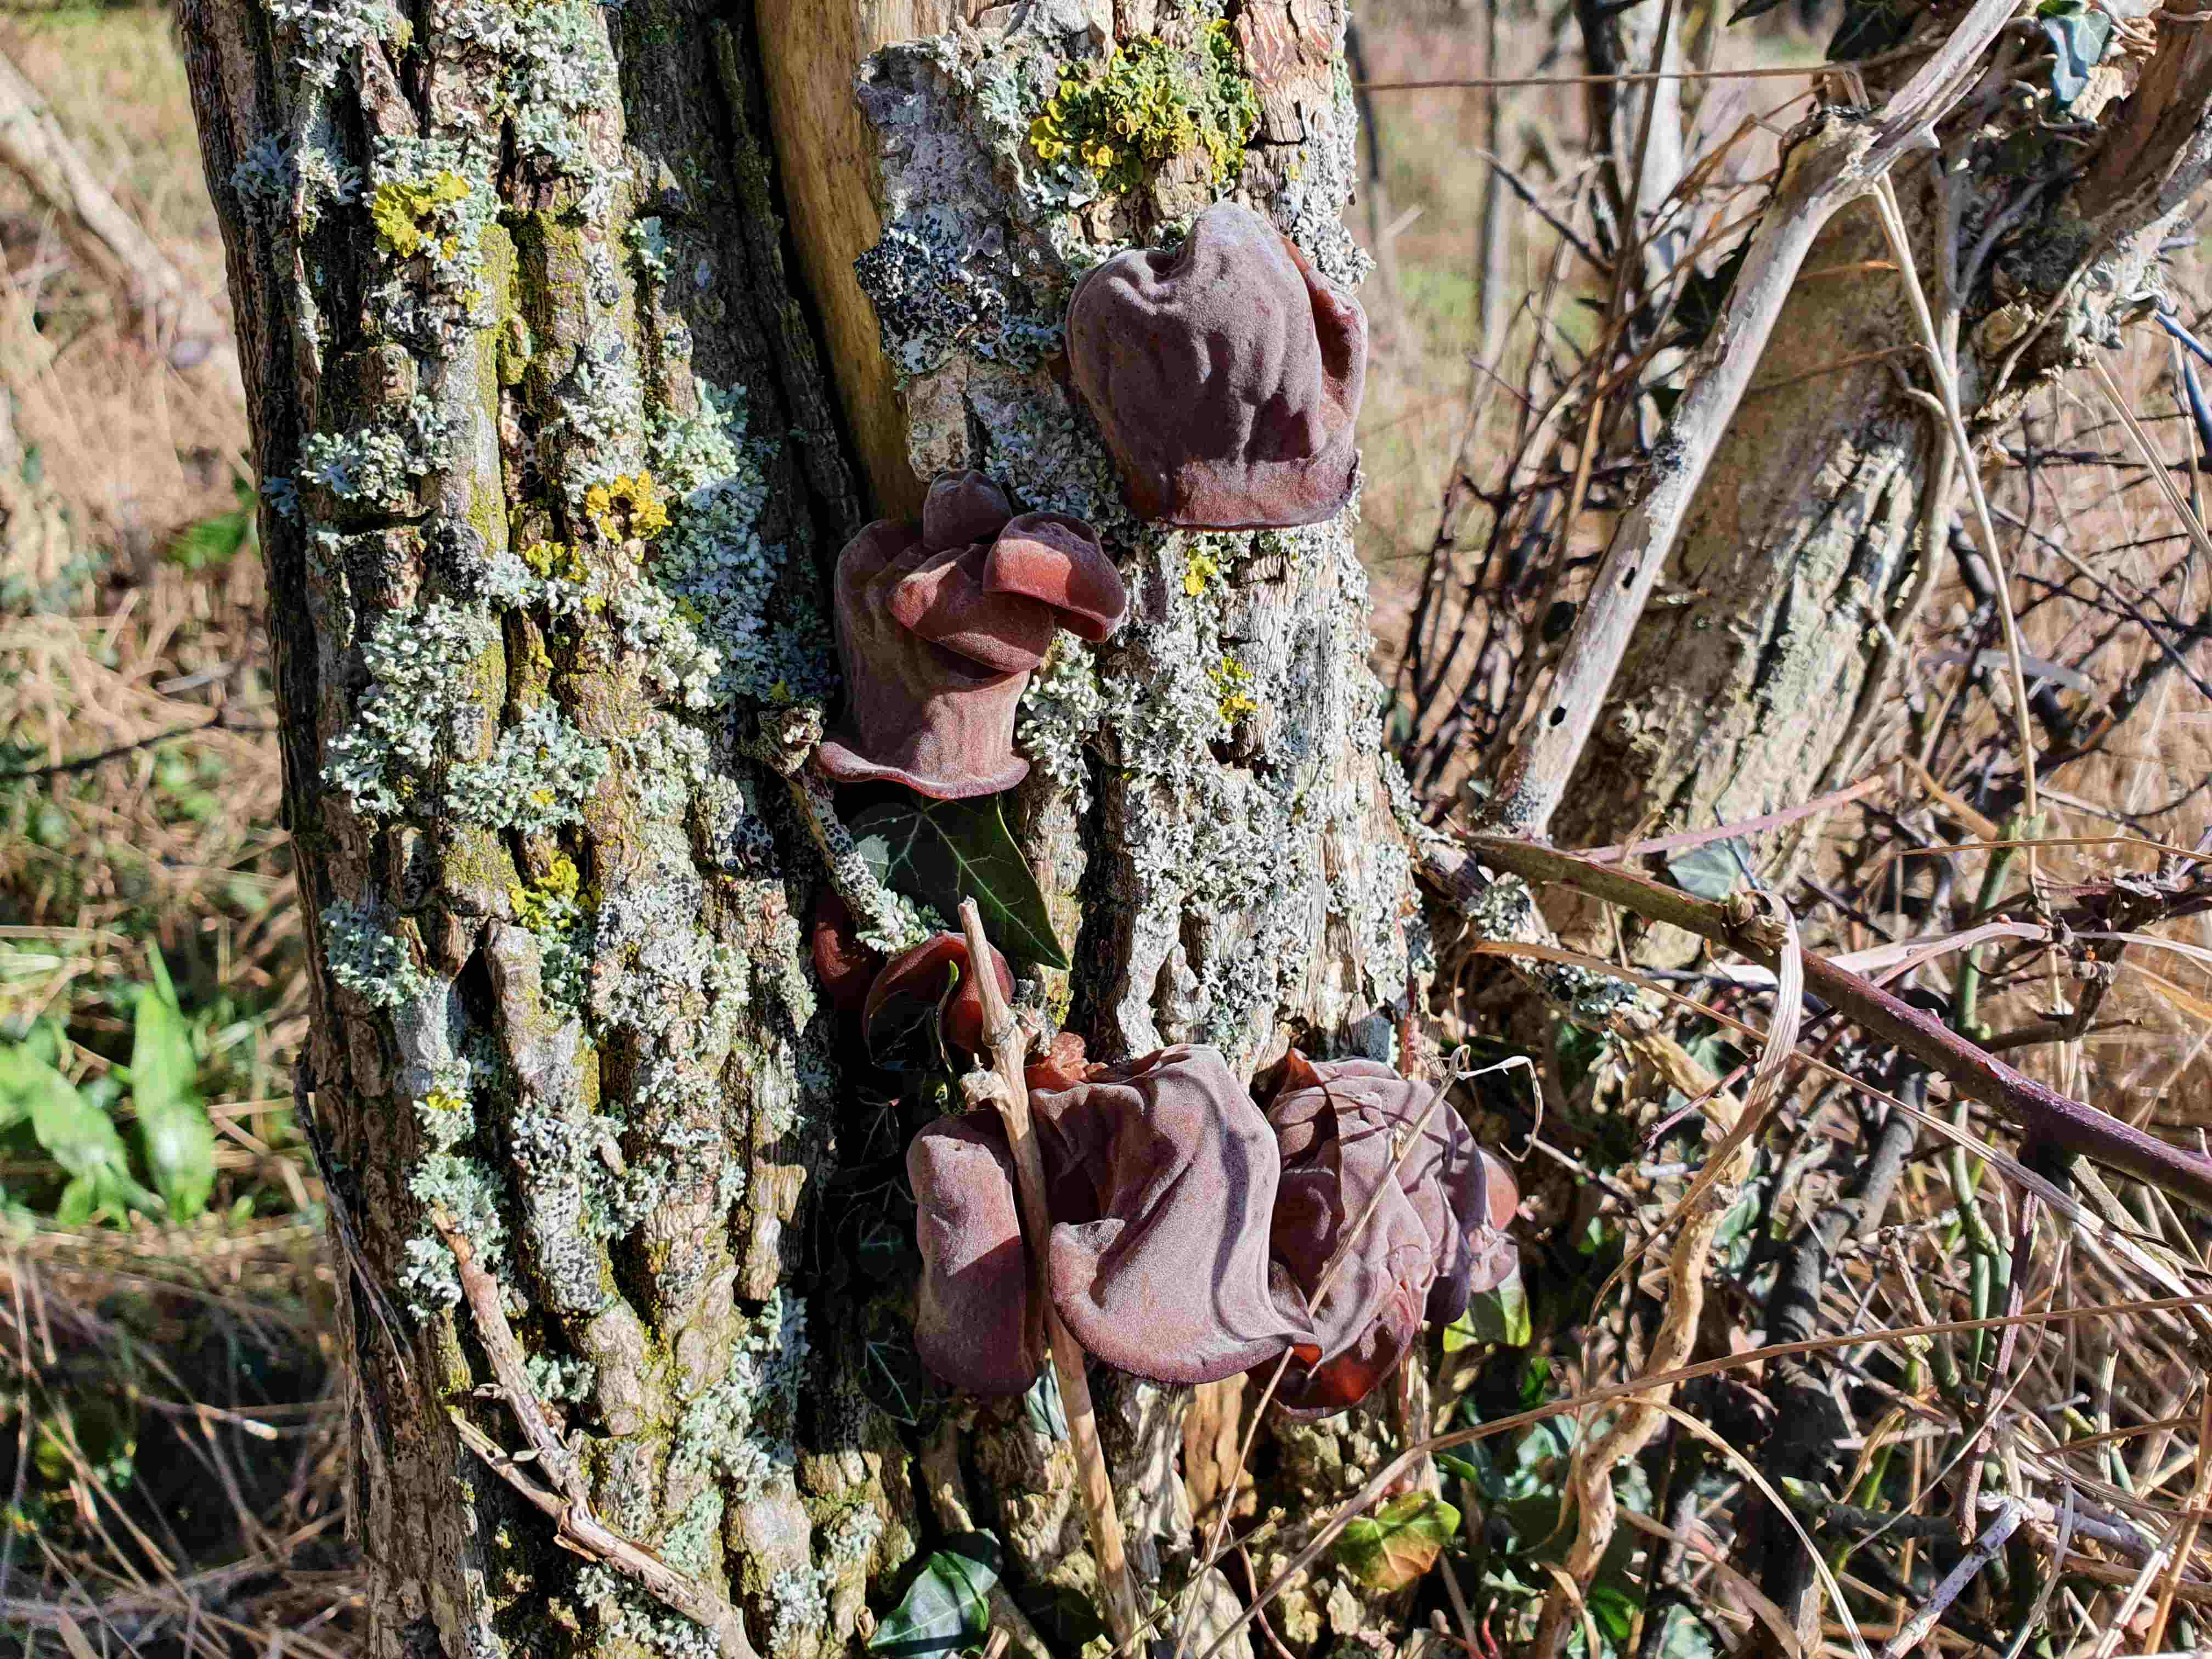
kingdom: Fungi
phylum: Basidiomycota
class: Agaricomycetes
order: Auriculariales
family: Auriculariaceae
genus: Auricularia
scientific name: Auricularia auricula-judae
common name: almindelig judasøre
